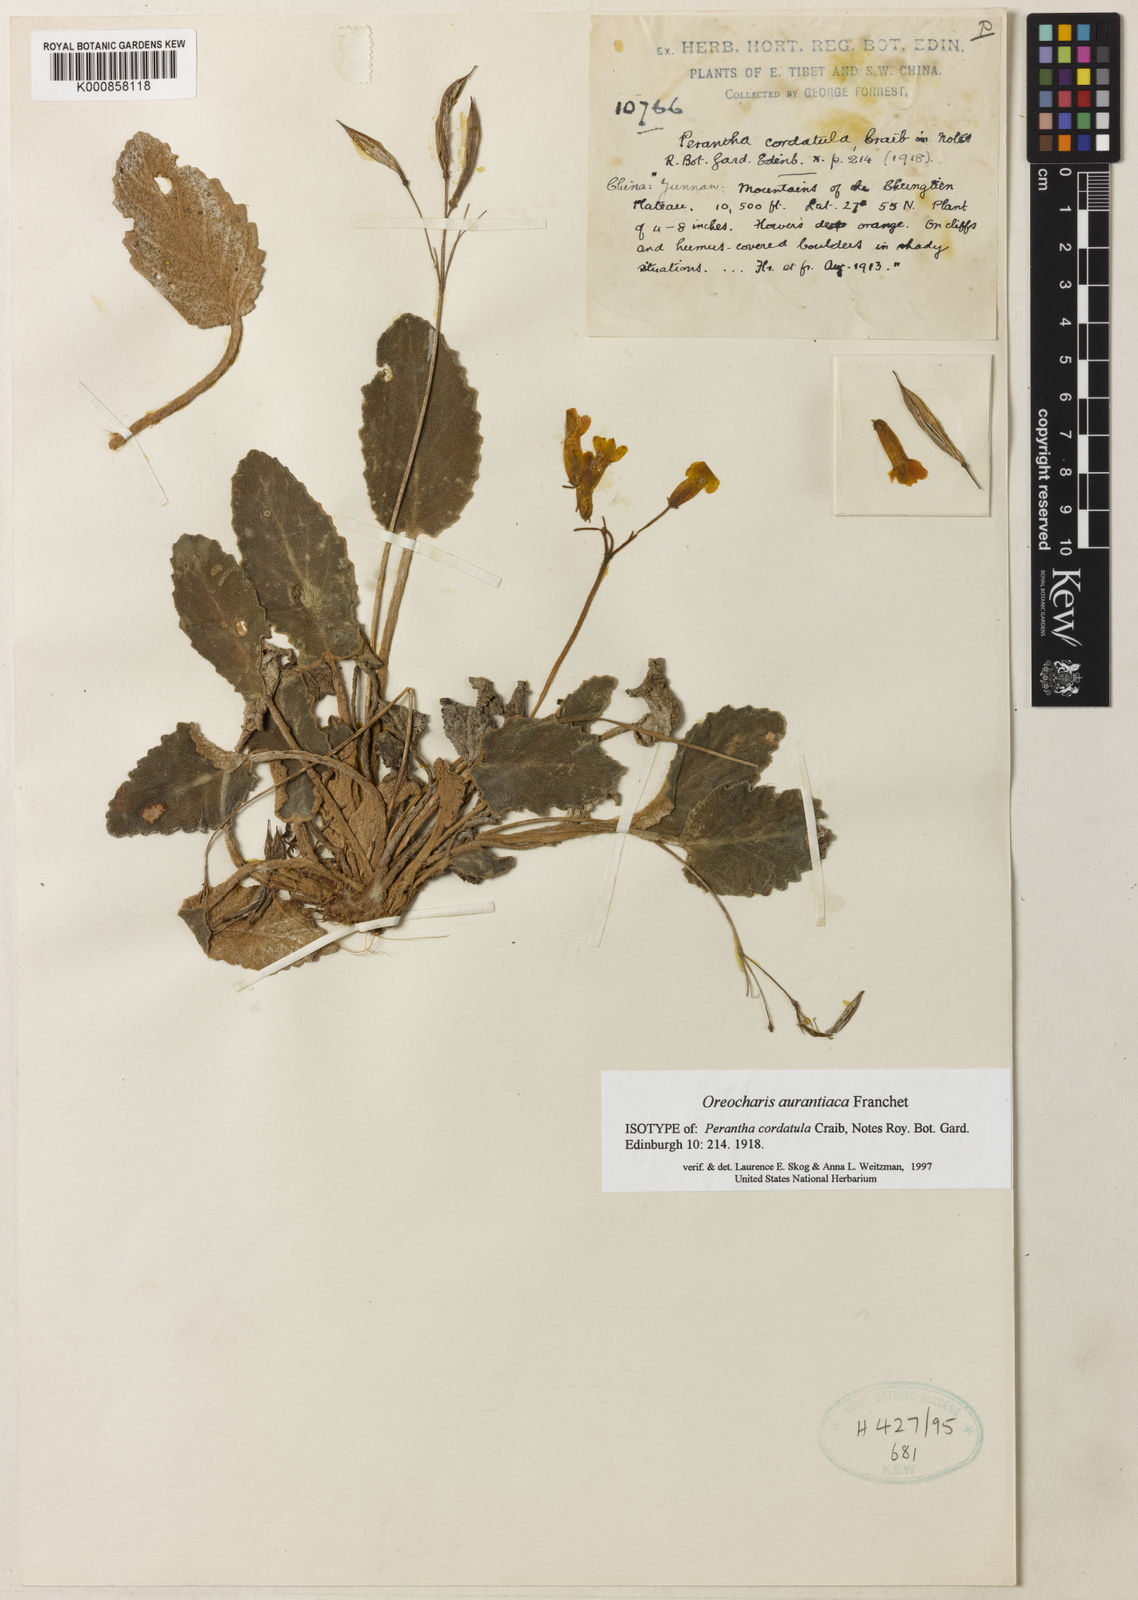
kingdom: Plantae
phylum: Tracheophyta
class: Magnoliopsida
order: Lamiales
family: Gesneriaceae
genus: Oreocharis
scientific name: Oreocharis
